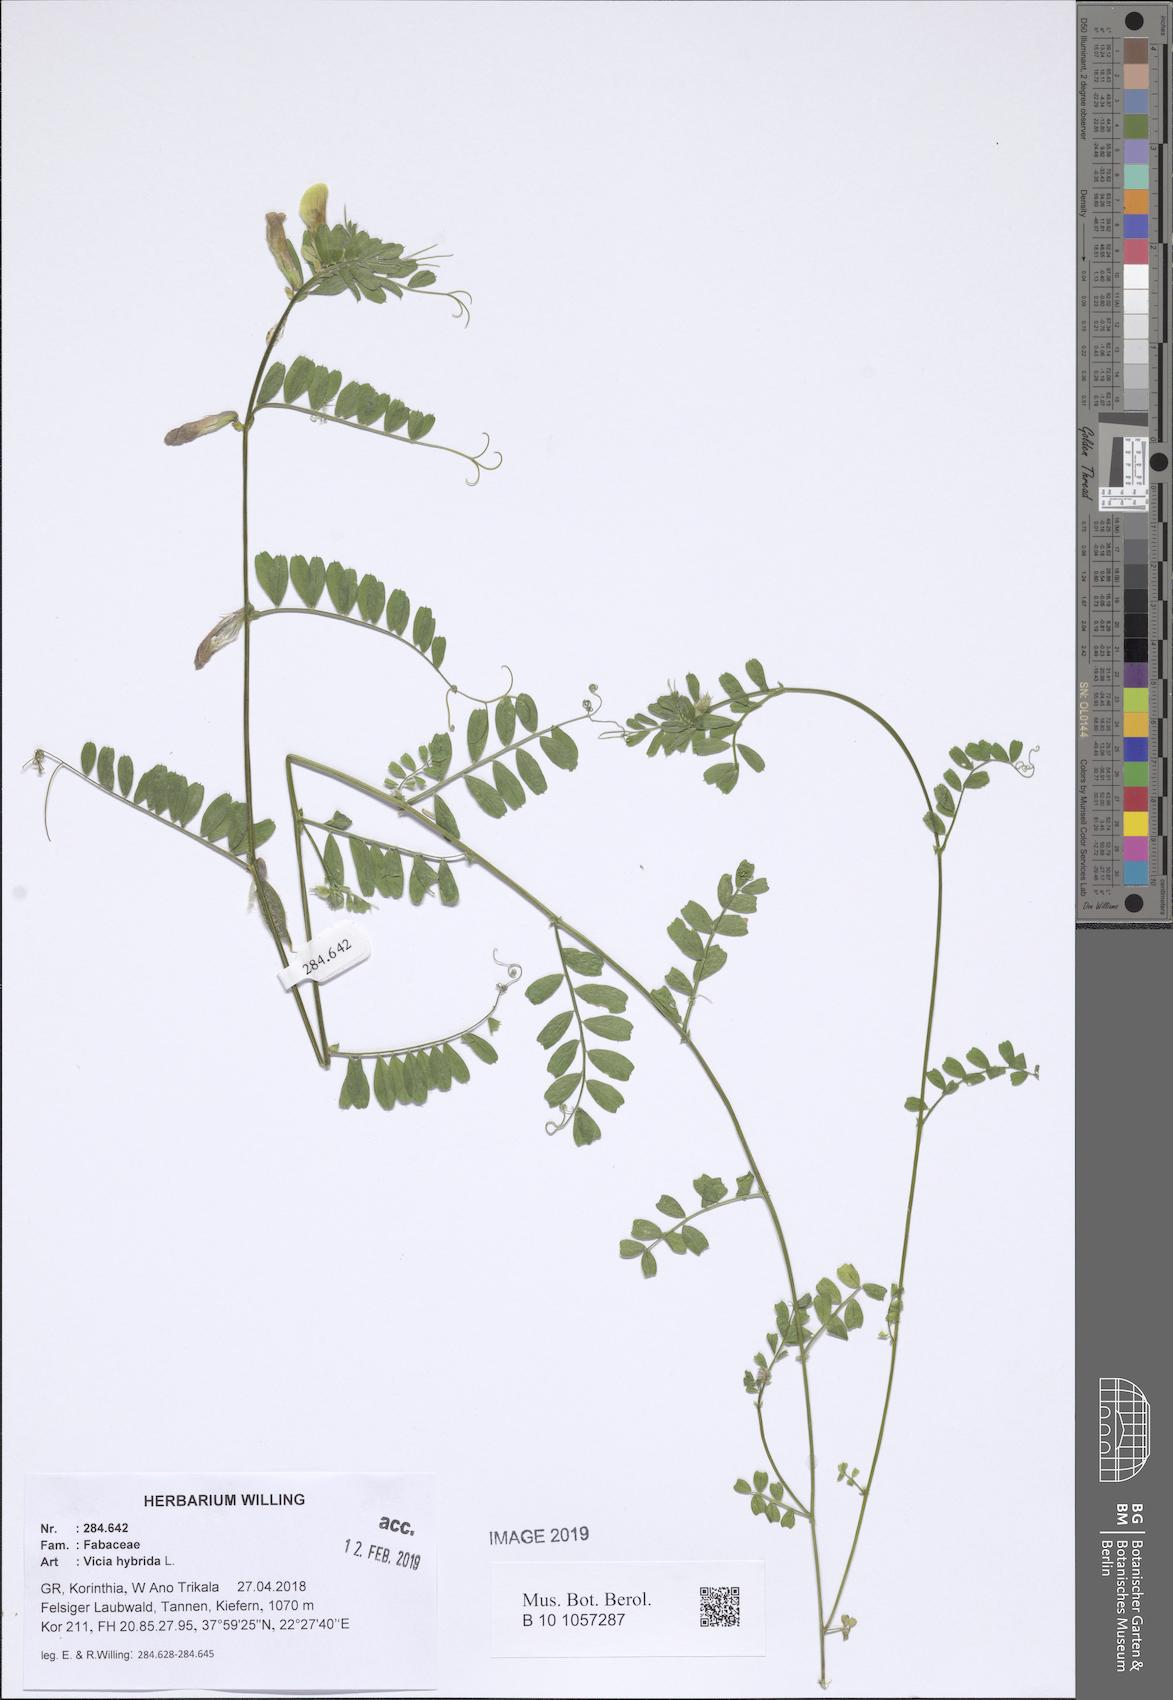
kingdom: Plantae
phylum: Tracheophyta
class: Magnoliopsida
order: Fabales
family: Fabaceae
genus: Vicia
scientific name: Vicia hybrida
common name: Hairy yellow vetch
